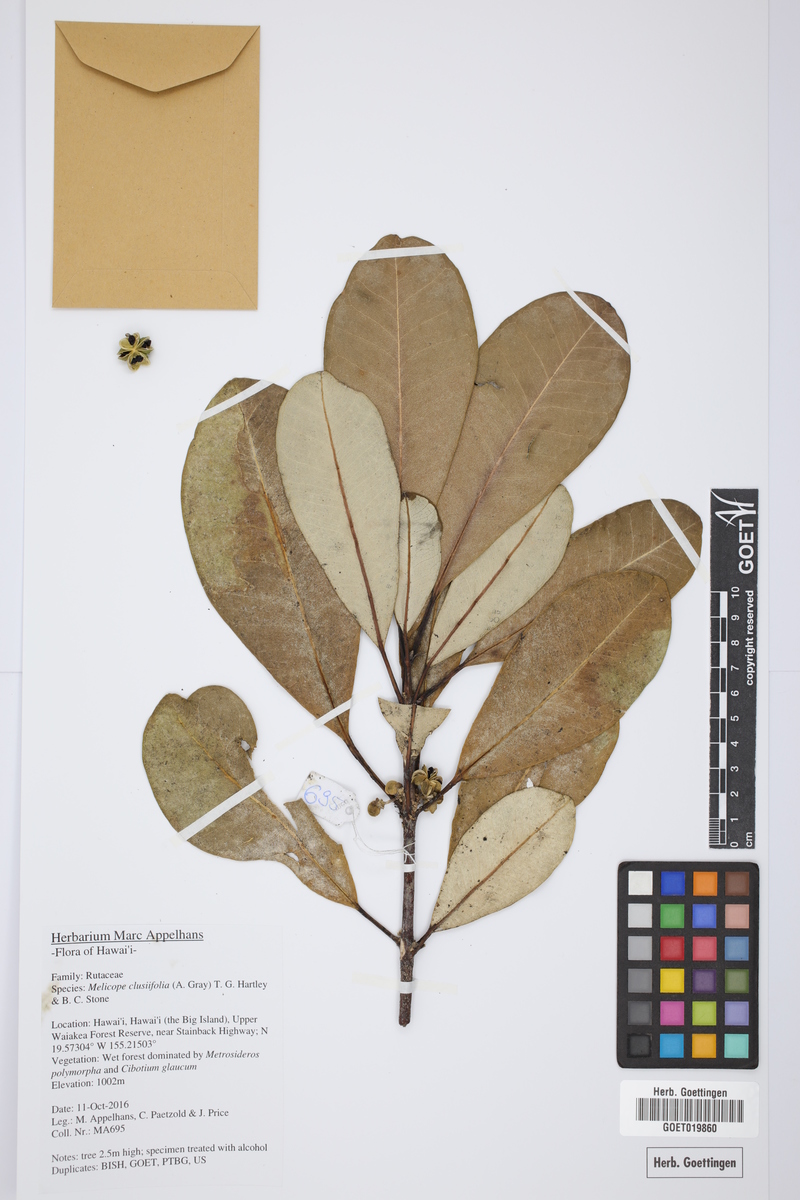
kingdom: Plantae
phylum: Tracheophyta
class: Magnoliopsida
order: Sapindales
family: Rutaceae
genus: Melicope
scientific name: Melicope clusiifolia
